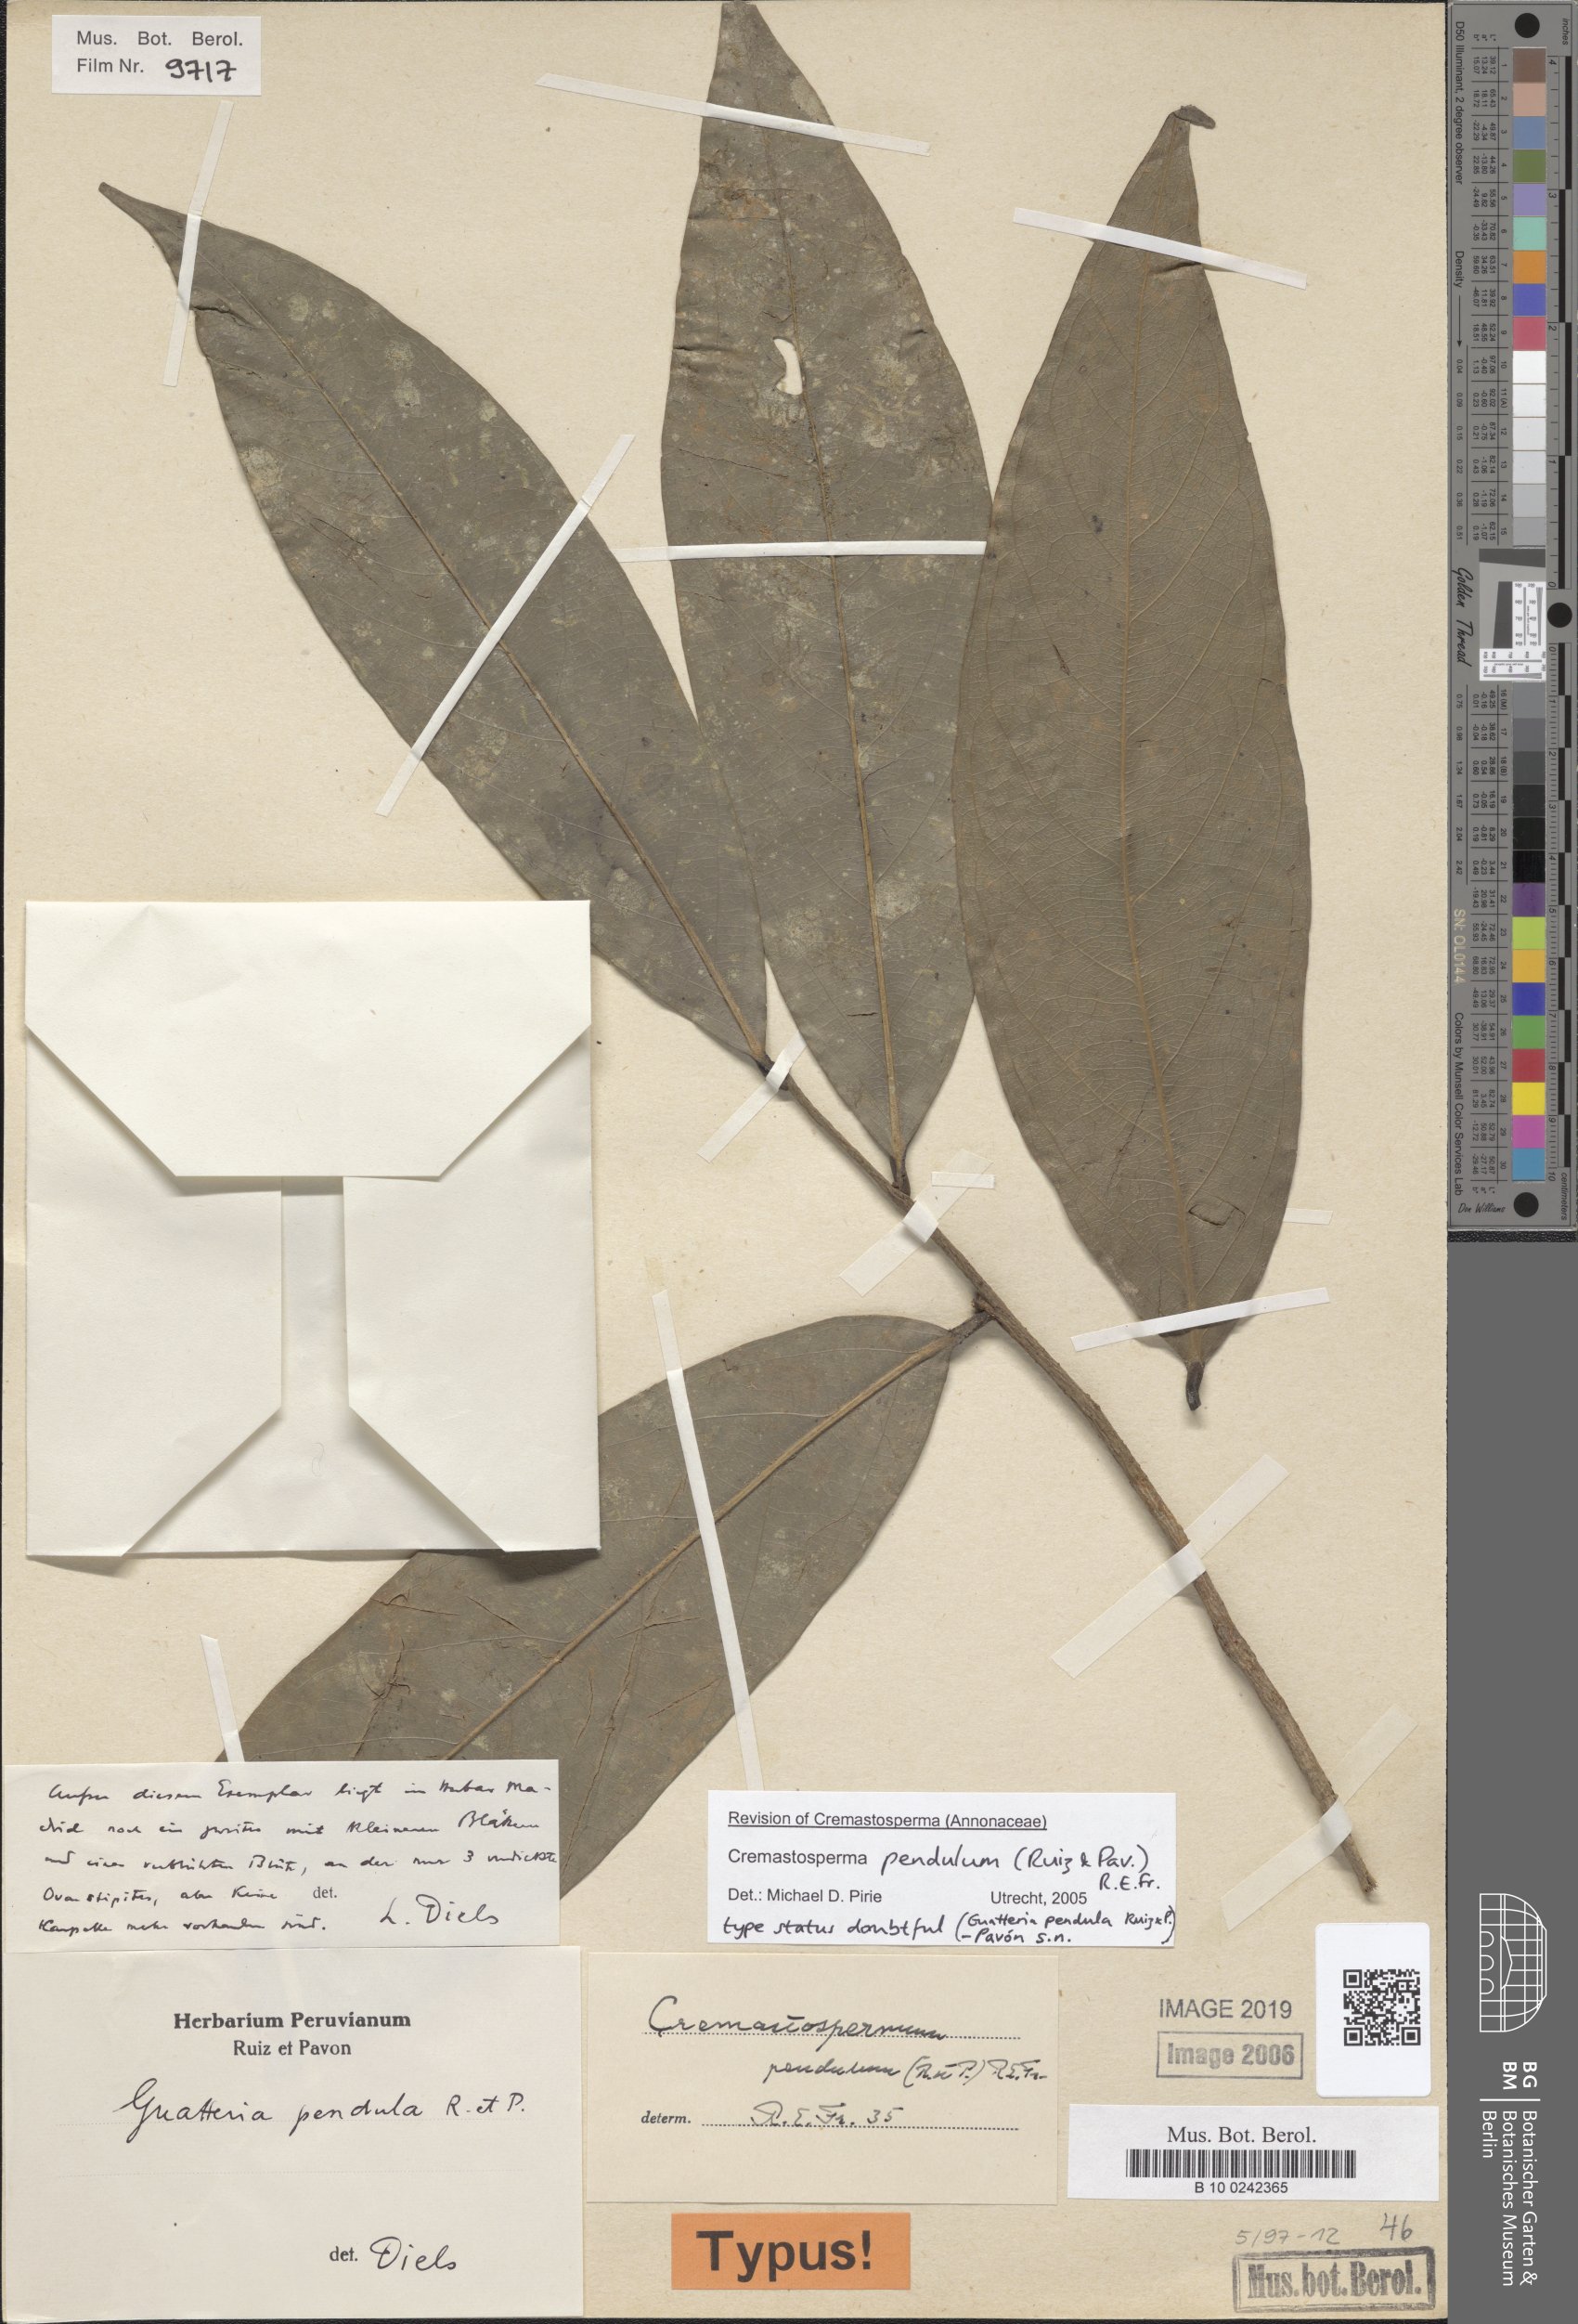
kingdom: Plantae
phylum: Tracheophyta
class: Magnoliopsida
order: Magnoliales
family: Annonaceae
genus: Cremastosperma
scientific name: Cremastosperma pendulum
